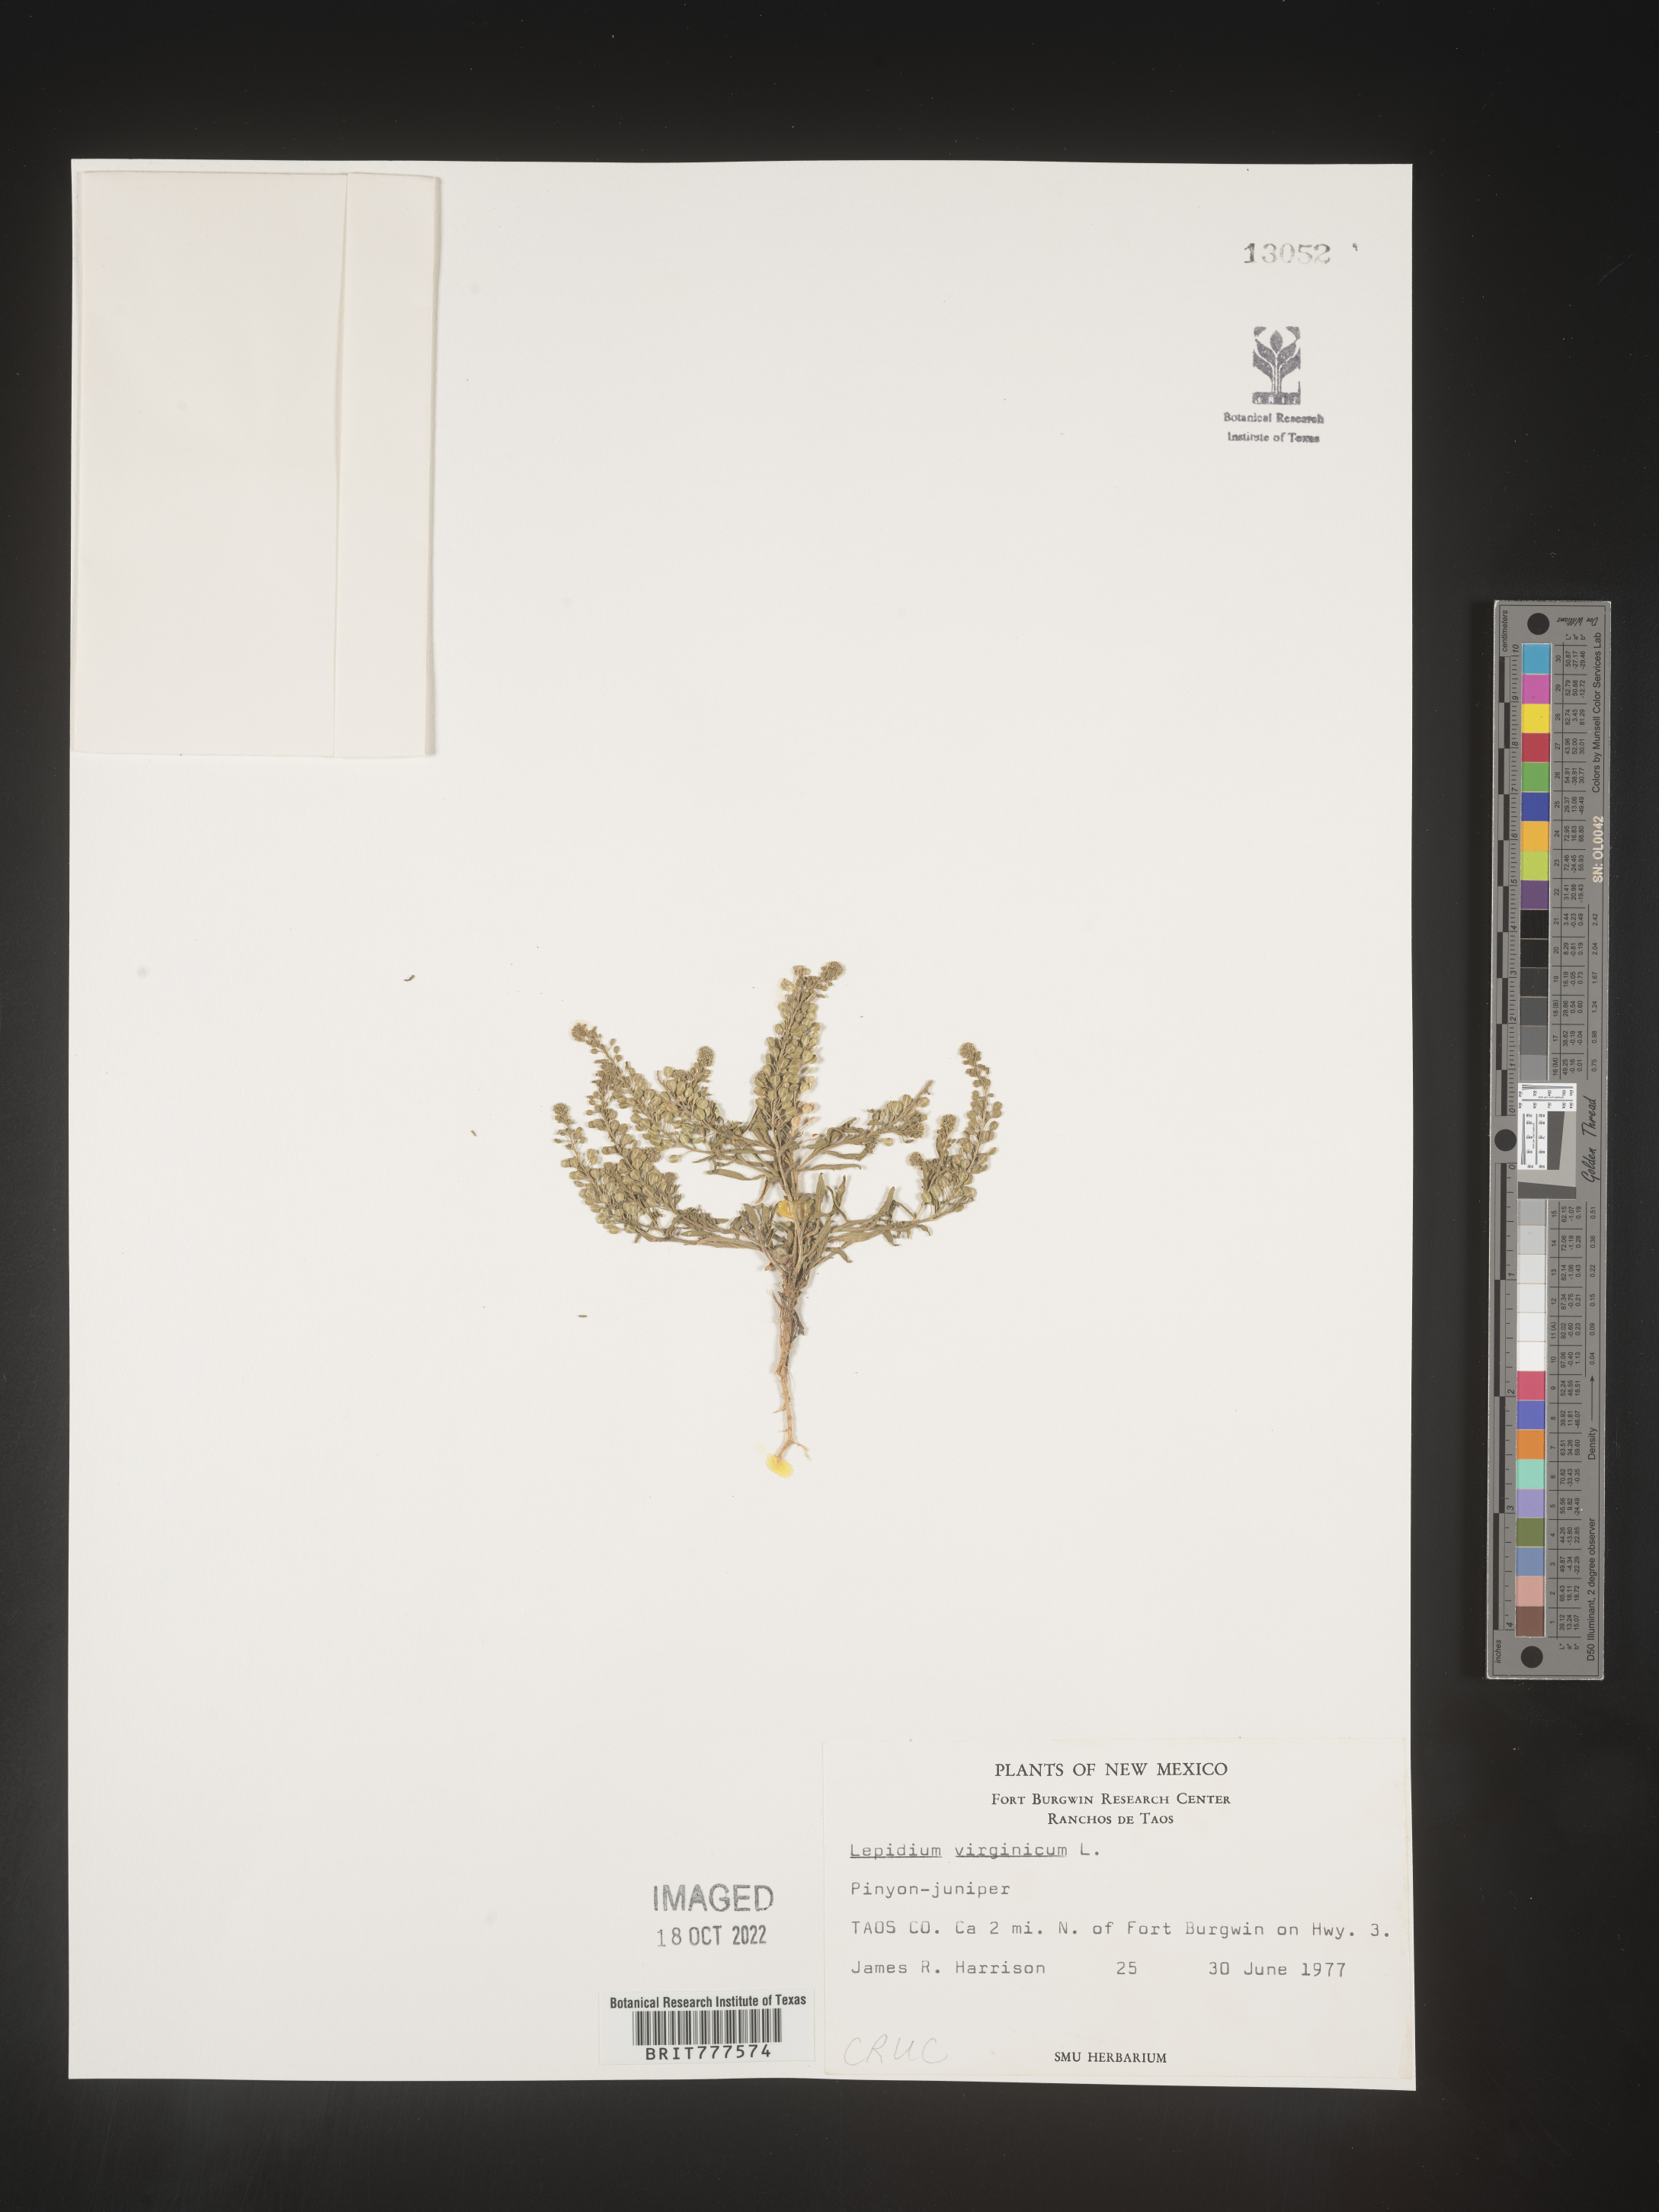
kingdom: Plantae
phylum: Tracheophyta
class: Magnoliopsida
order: Brassicales
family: Brassicaceae
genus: Lepidium
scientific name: Lepidium virginicum
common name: Least pepperwort
